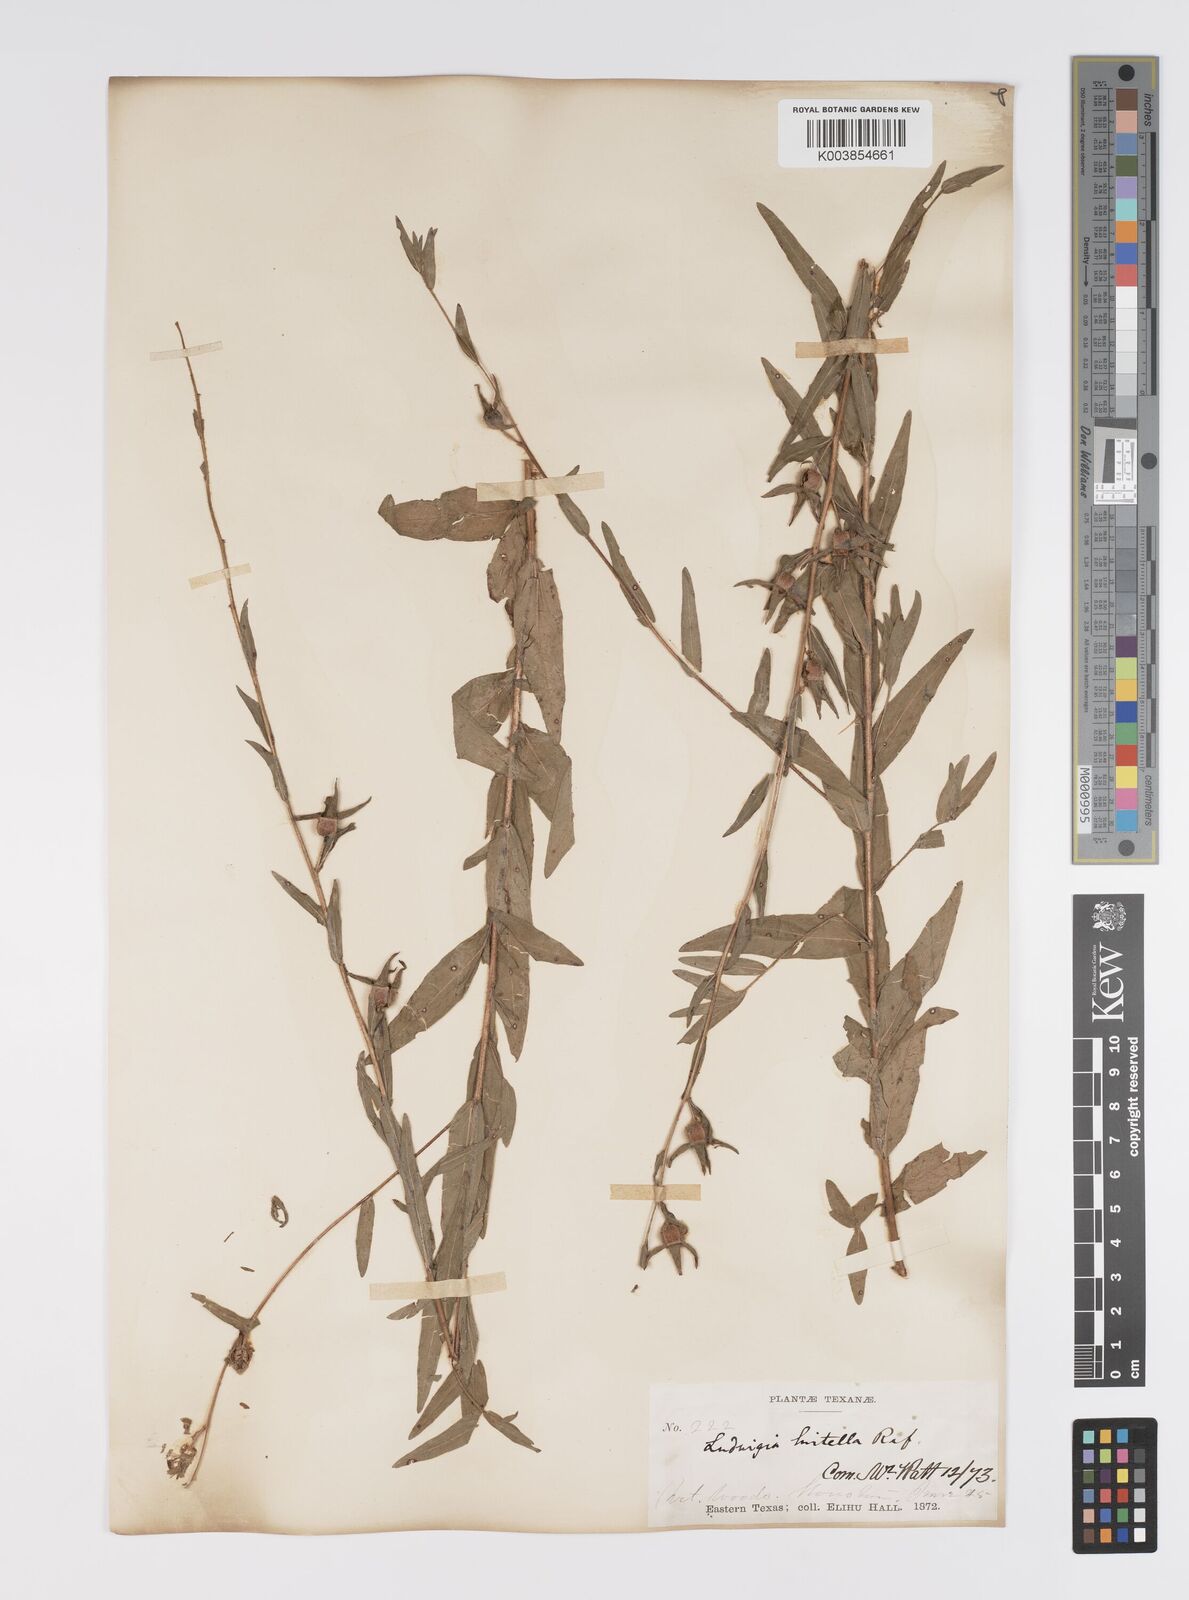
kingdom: Plantae
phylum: Tracheophyta
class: Magnoliopsida
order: Myrtales
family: Onagraceae
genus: Ludwigia
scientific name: Ludwigia hirtella
